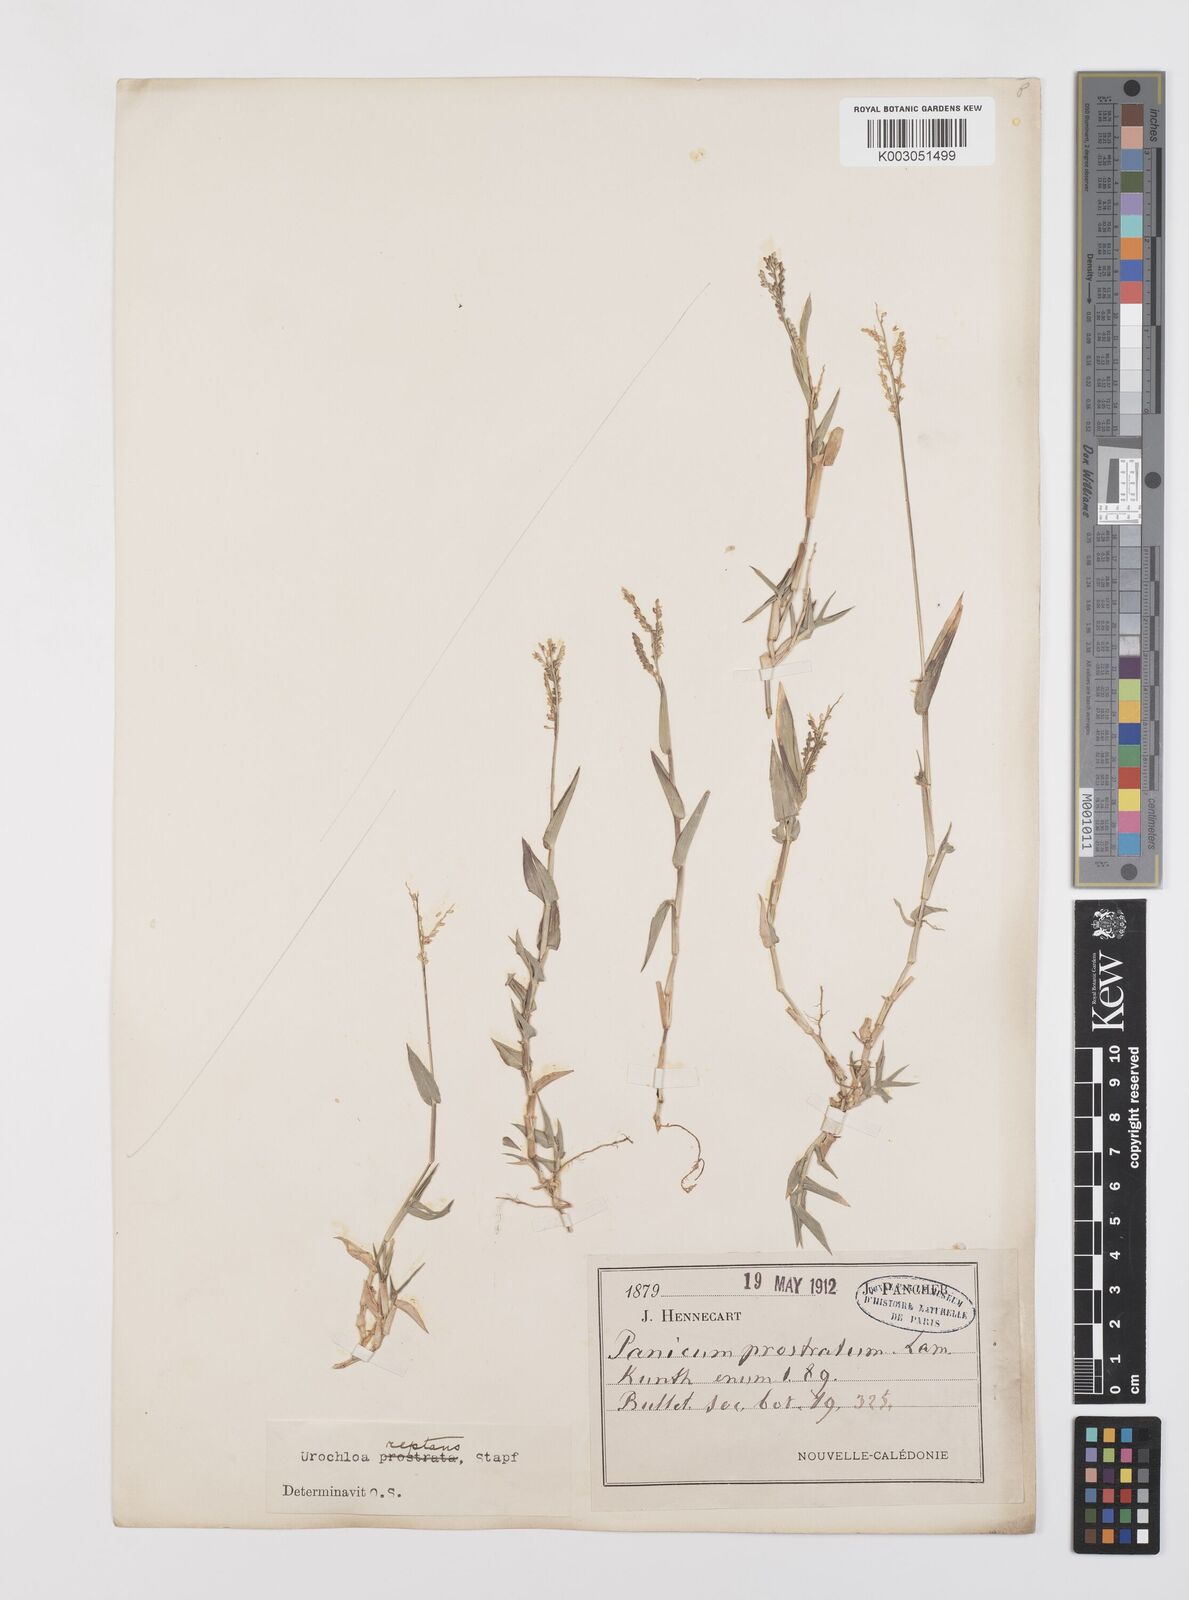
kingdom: Plantae
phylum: Tracheophyta
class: Liliopsida
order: Poales
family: Poaceae
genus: Urochloa
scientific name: Urochloa reptans
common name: Sprawling signalgrass
